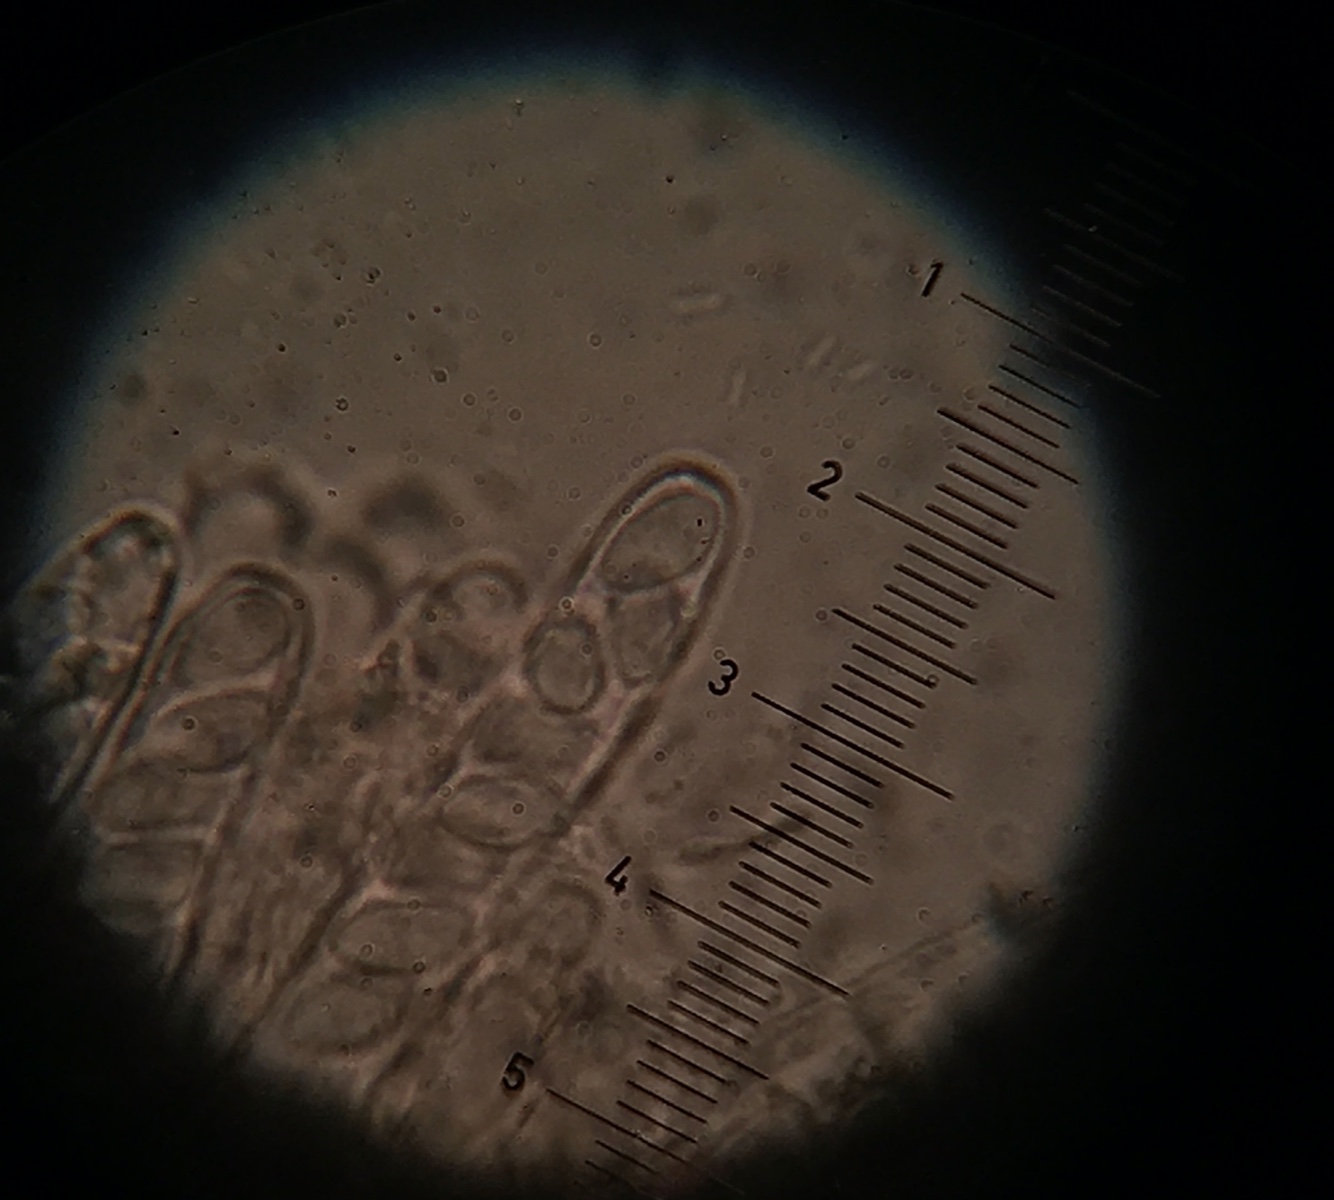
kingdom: Fungi
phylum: Ascomycota
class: Leotiomycetes
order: Helotiales
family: Sclerotiniaceae
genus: Ciboria
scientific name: Ciboria amentacea
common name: ellerakle-knoldskive
